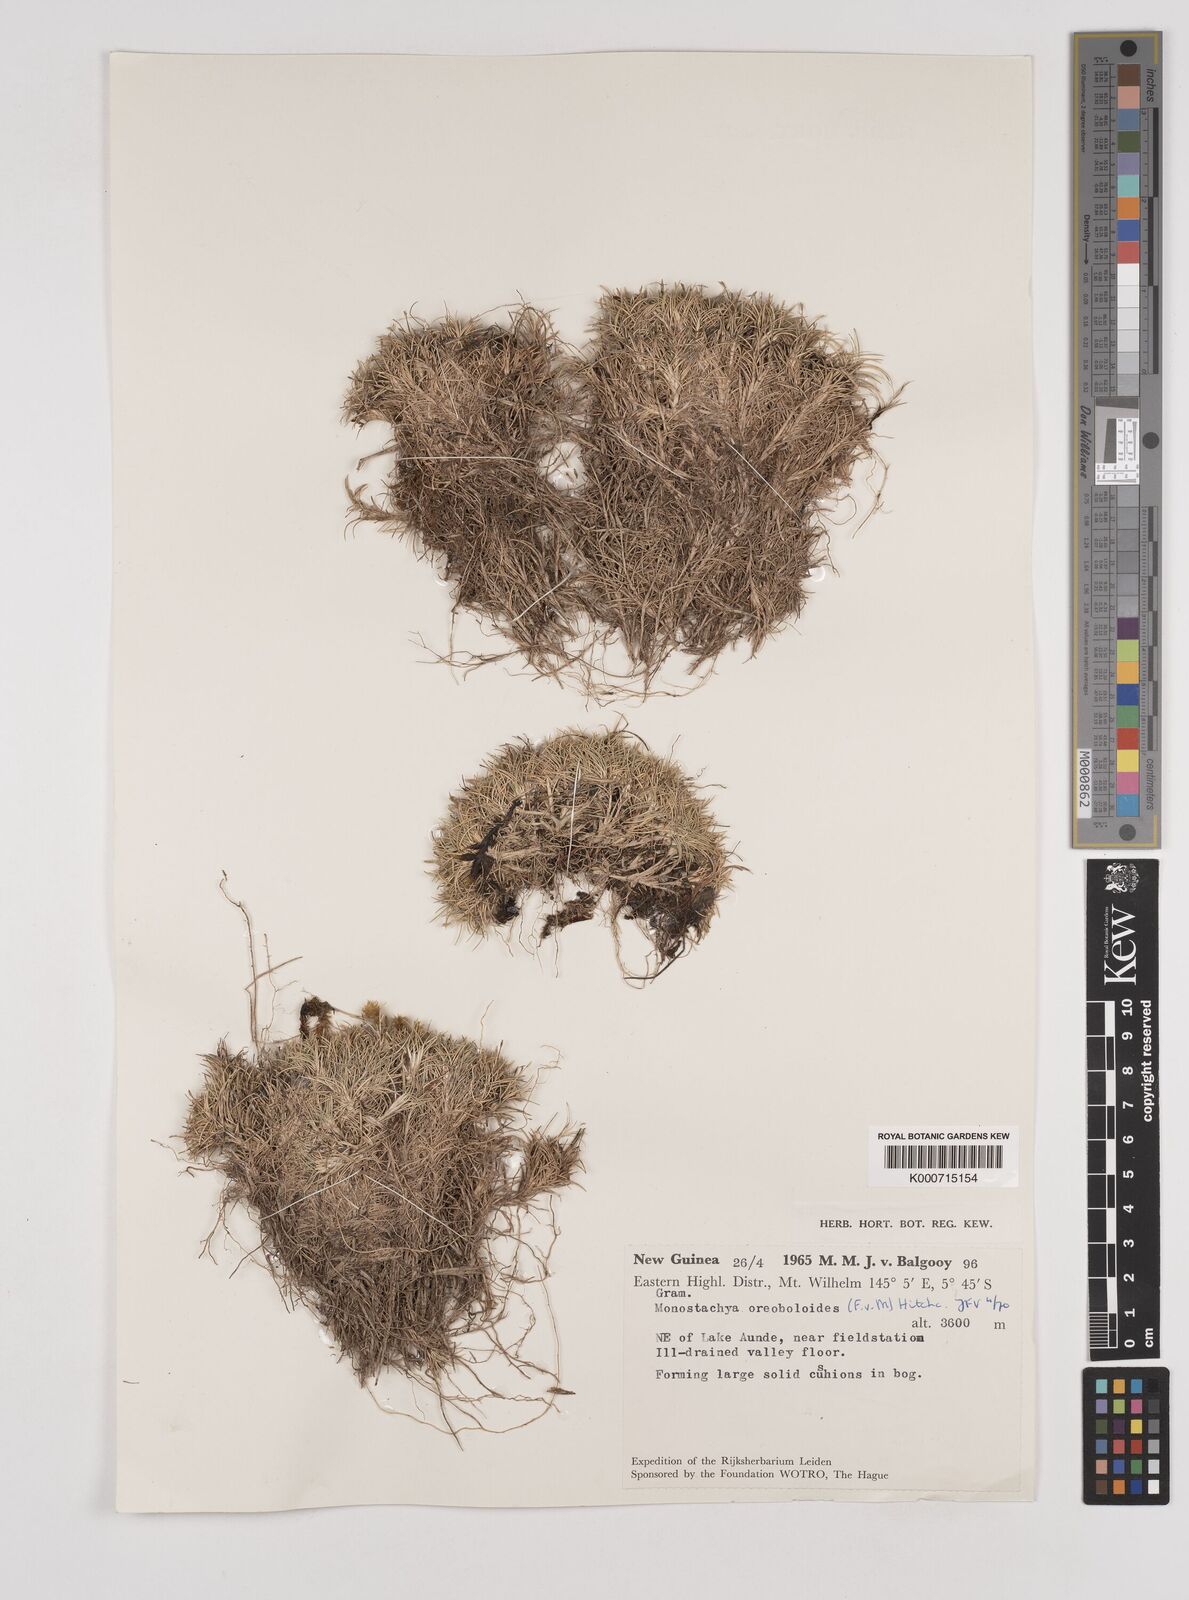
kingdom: Plantae
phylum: Tracheophyta
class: Liliopsida
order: Poales
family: Poaceae
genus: Rytidosperma
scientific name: Rytidosperma oreoboloides
